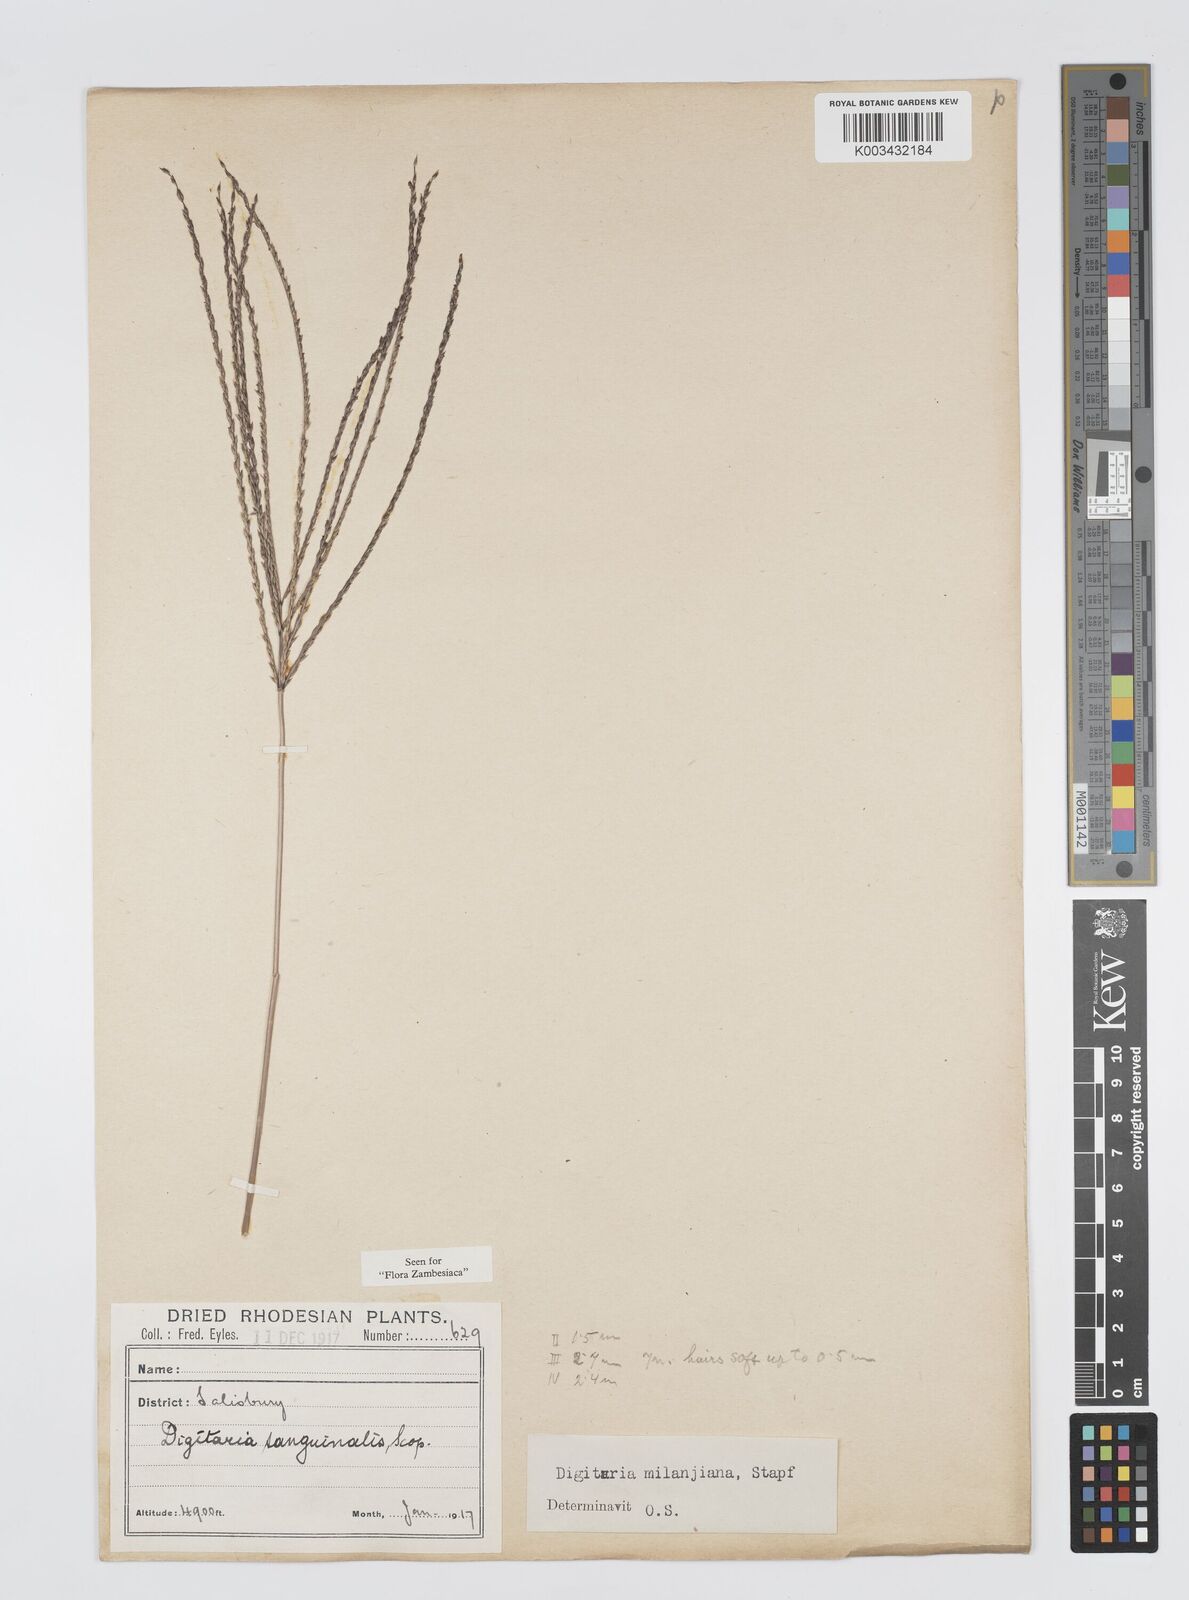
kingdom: Plantae
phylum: Tracheophyta
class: Liliopsida
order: Poales
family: Poaceae
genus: Digitaria
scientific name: Digitaria milanjiana
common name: Madagascar crabgrass
